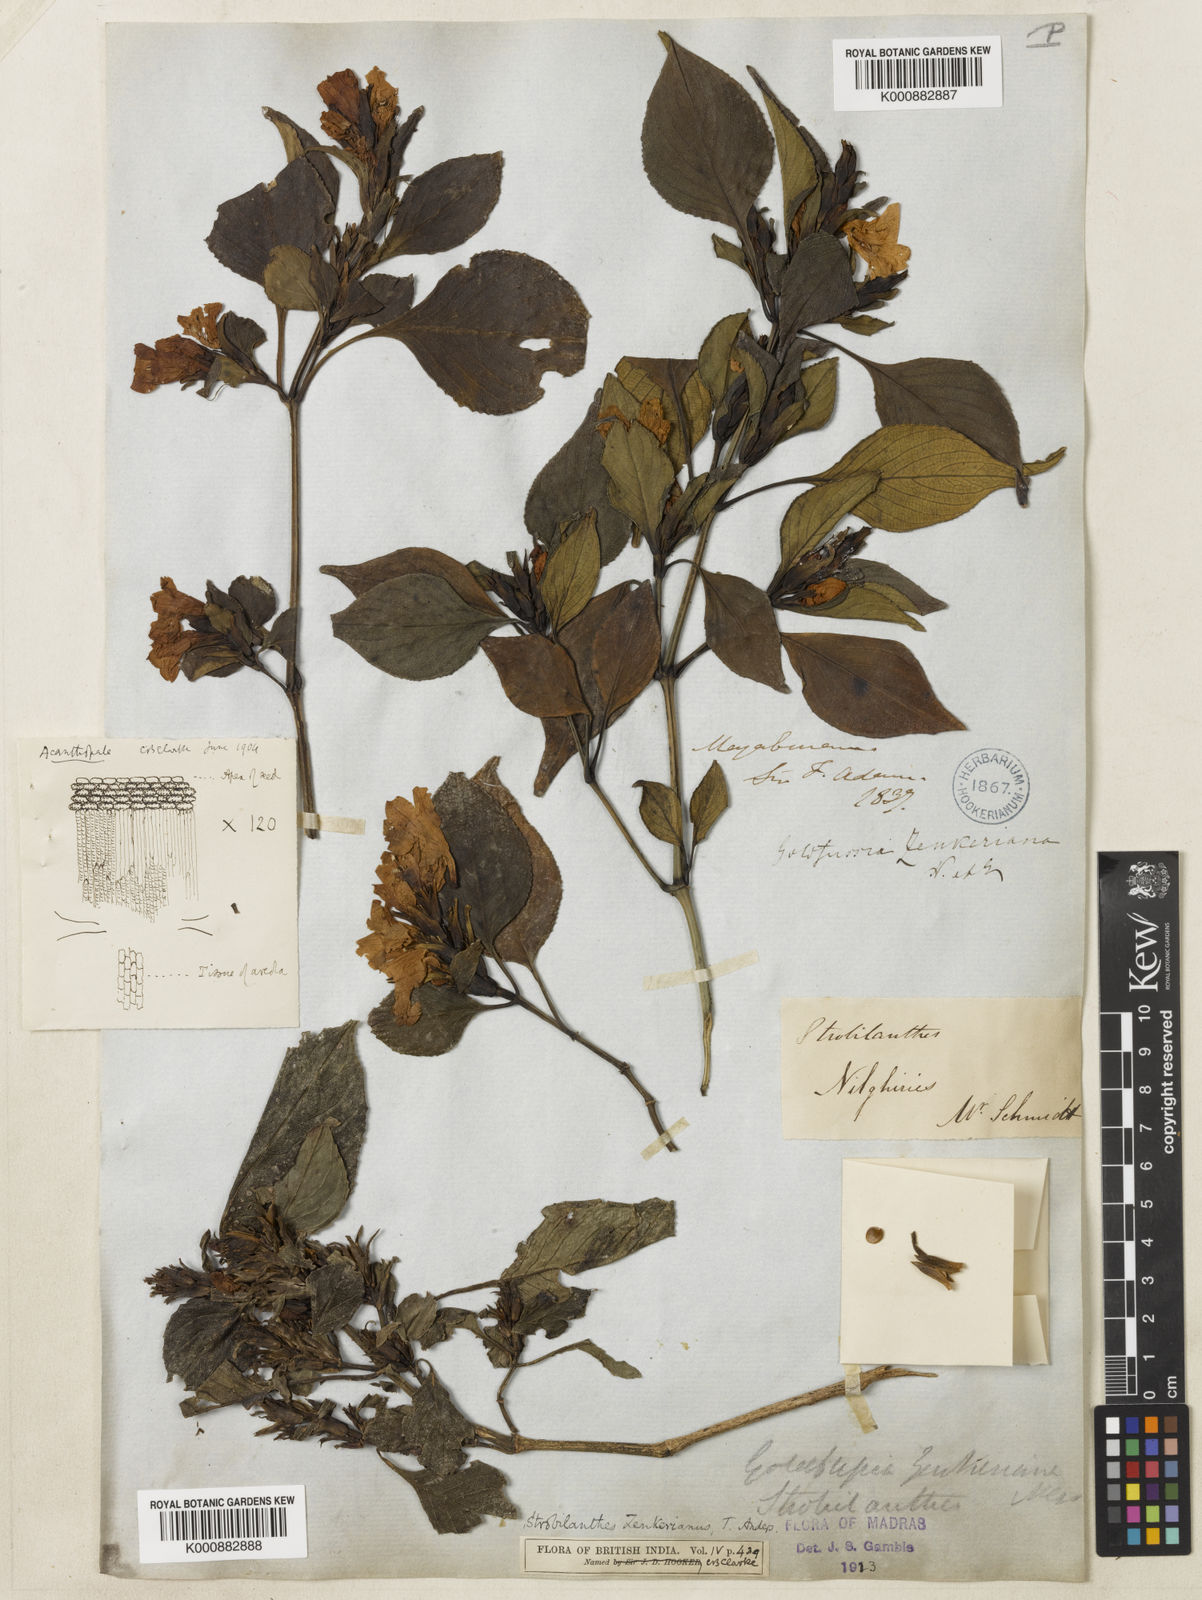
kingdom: Plantae
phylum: Tracheophyta
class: Magnoliopsida
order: Lamiales
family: Acanthaceae
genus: Strobilanthes
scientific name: Strobilanthes zenkeriana
